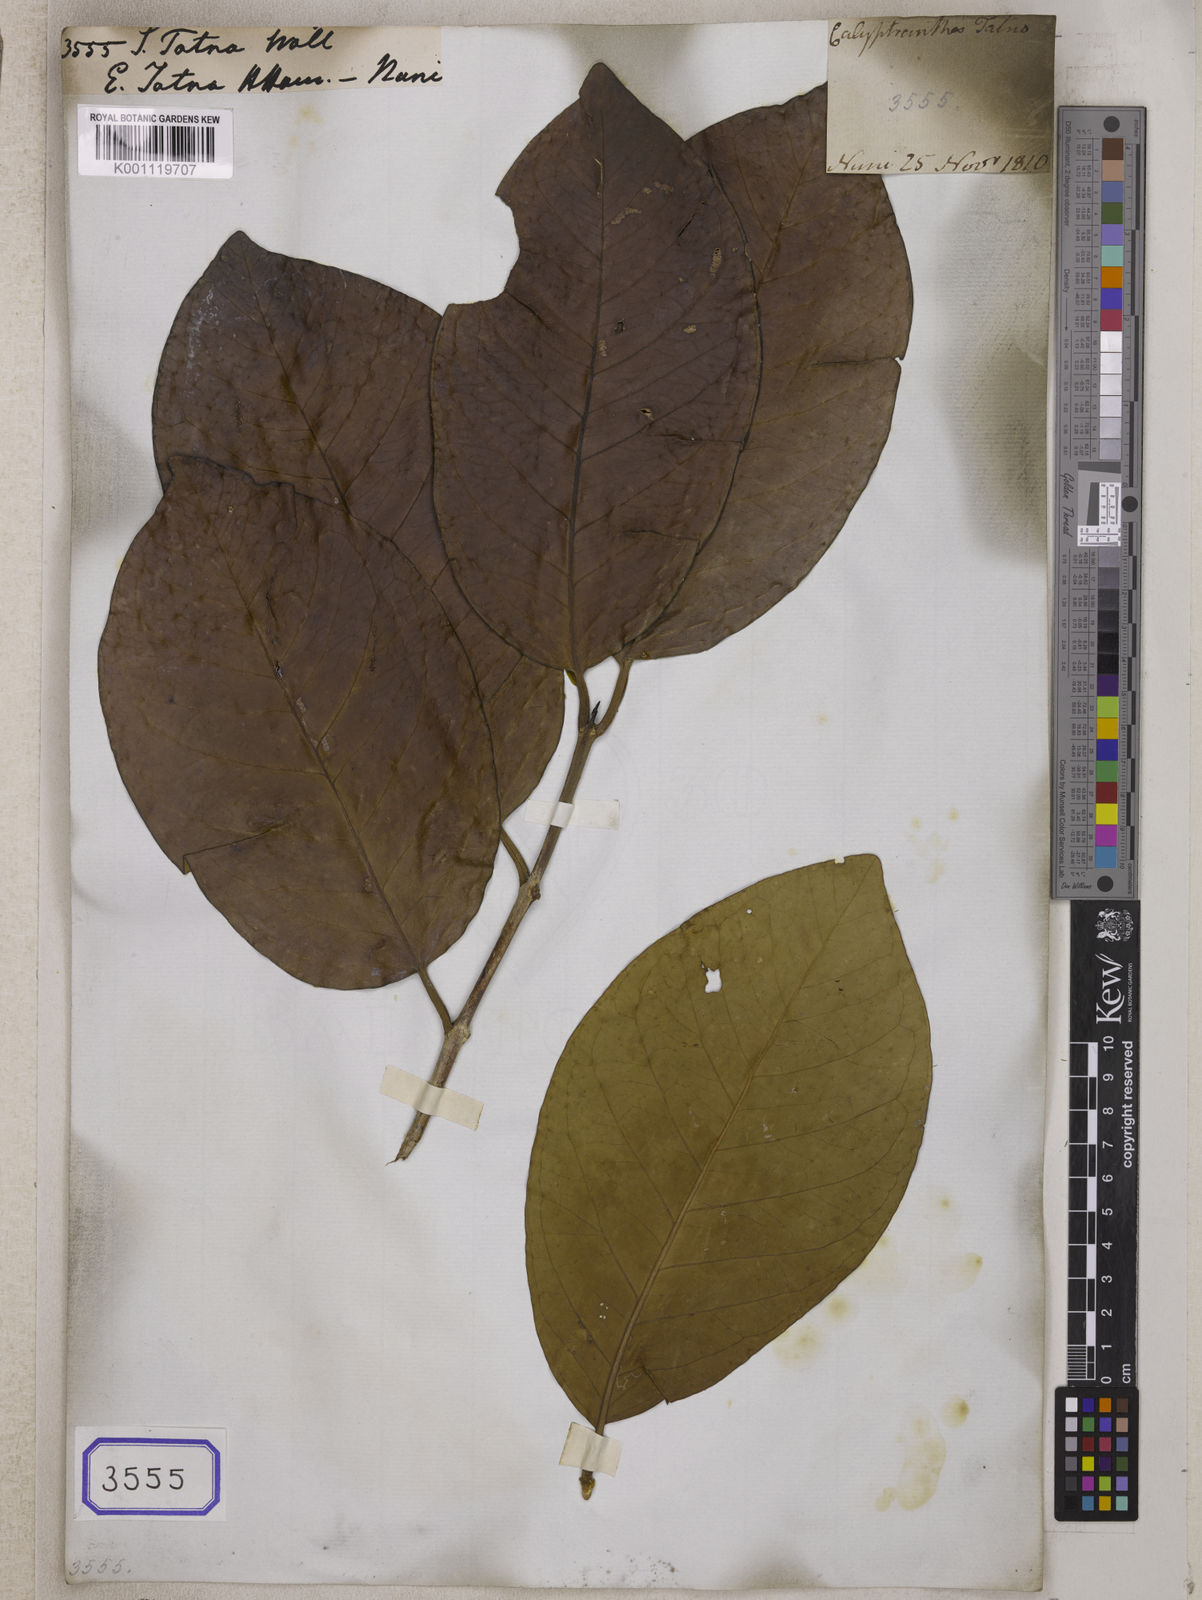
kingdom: Plantae
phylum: Tracheophyta
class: Magnoliopsida
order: Myrtales
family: Myrtaceae
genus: Syzygium
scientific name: Syzygium
